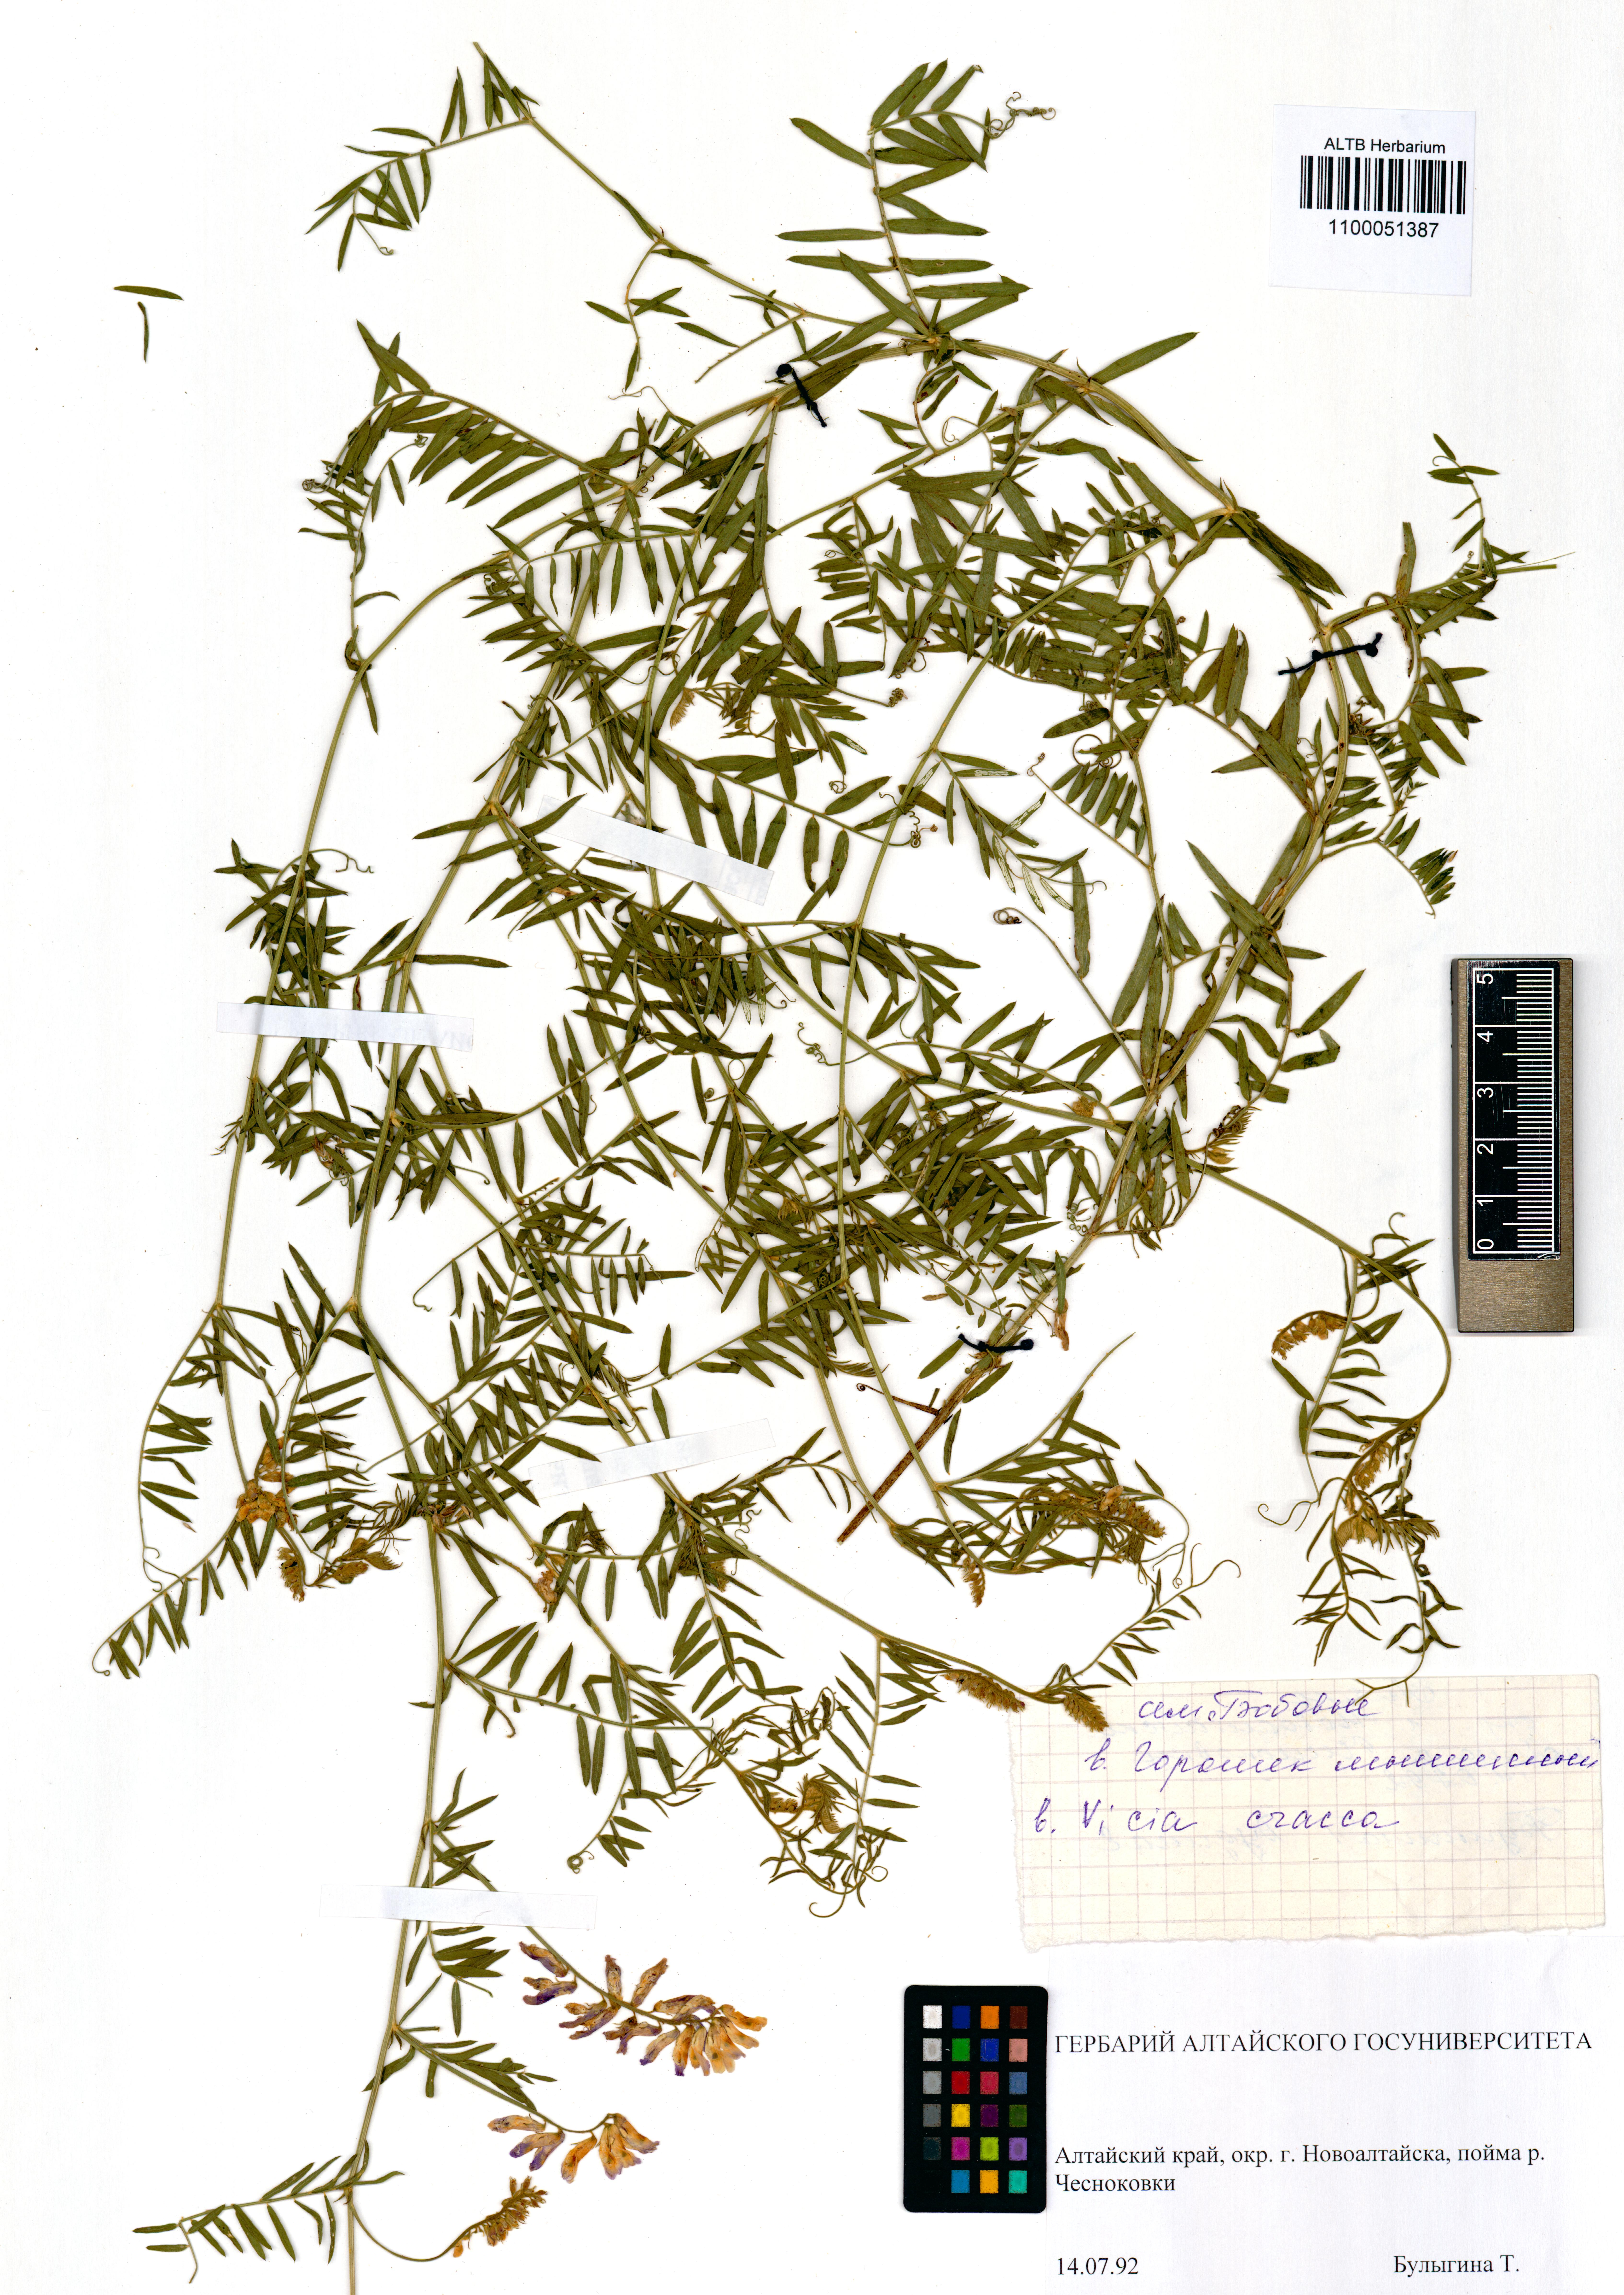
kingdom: Plantae
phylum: Tracheophyta
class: Magnoliopsida
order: Fabales
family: Fabaceae
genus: Vicia
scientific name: Vicia cracca
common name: Bird vetch
